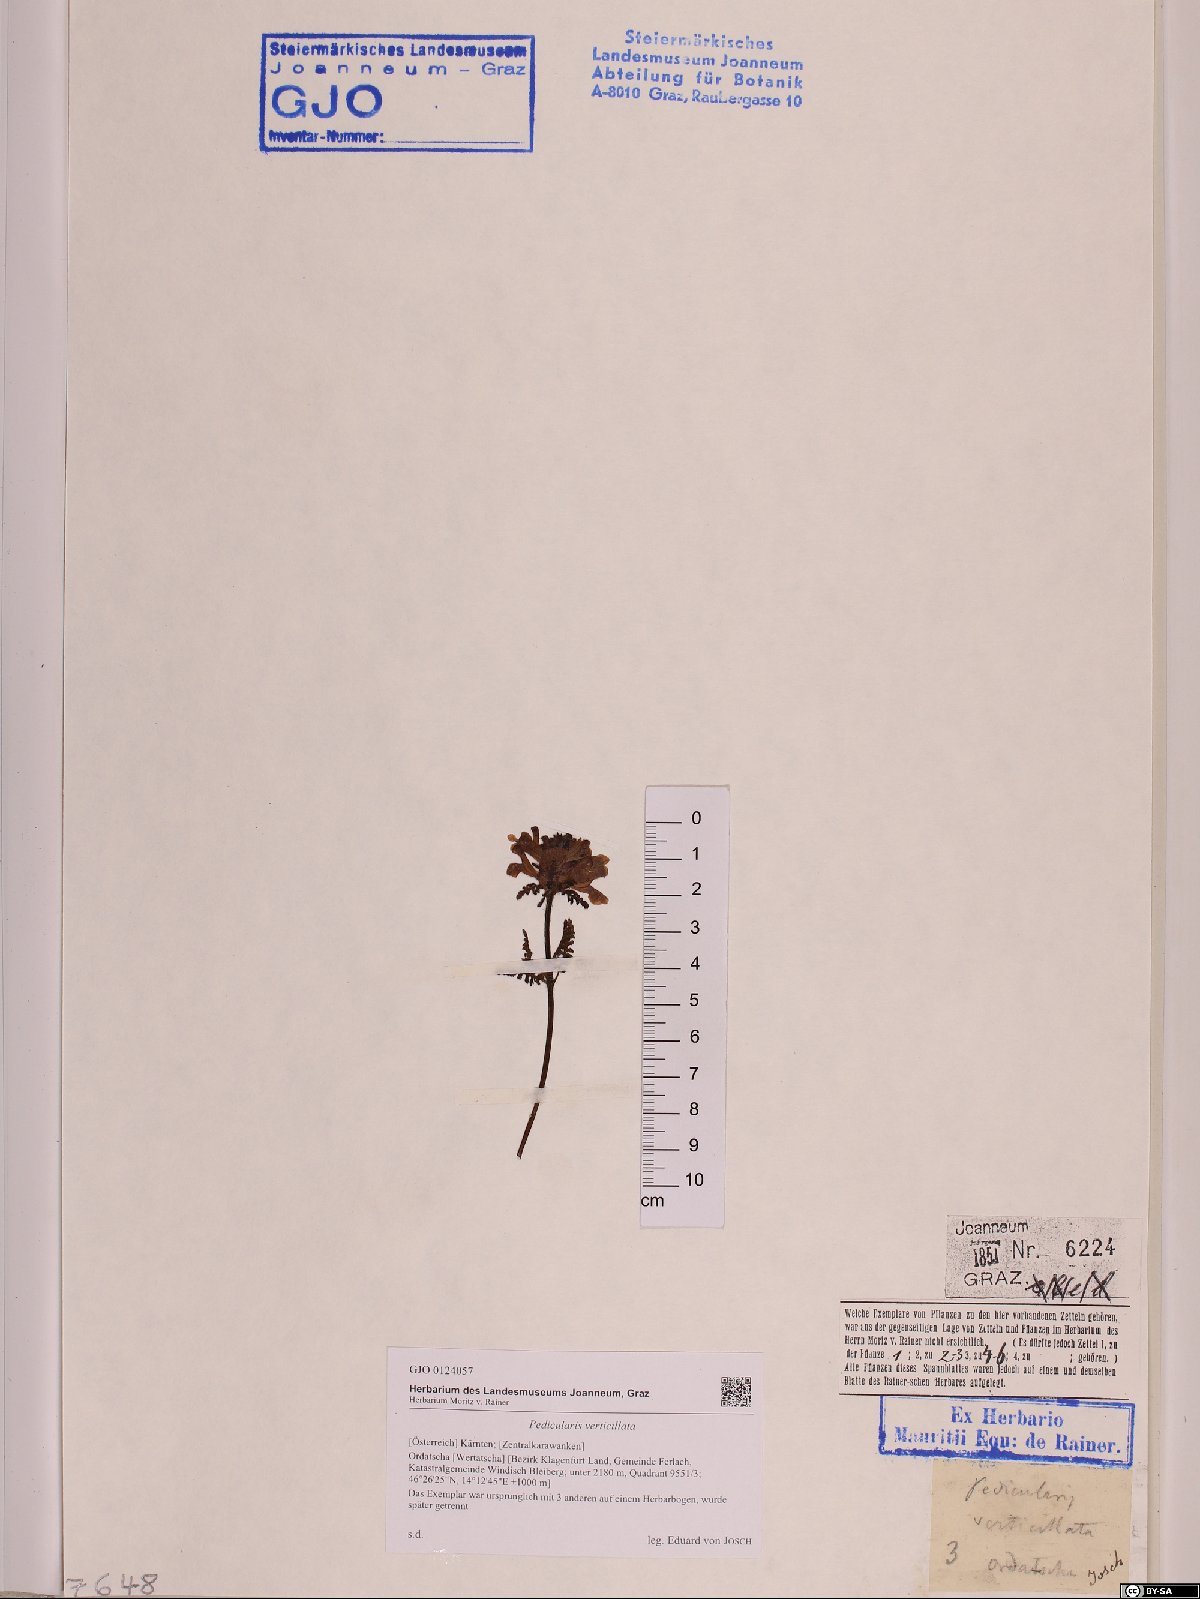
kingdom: Plantae
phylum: Tracheophyta
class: Magnoliopsida
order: Lamiales
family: Orobanchaceae
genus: Pedicularis
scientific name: Pedicularis verticillata
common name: Whorled lousewort
